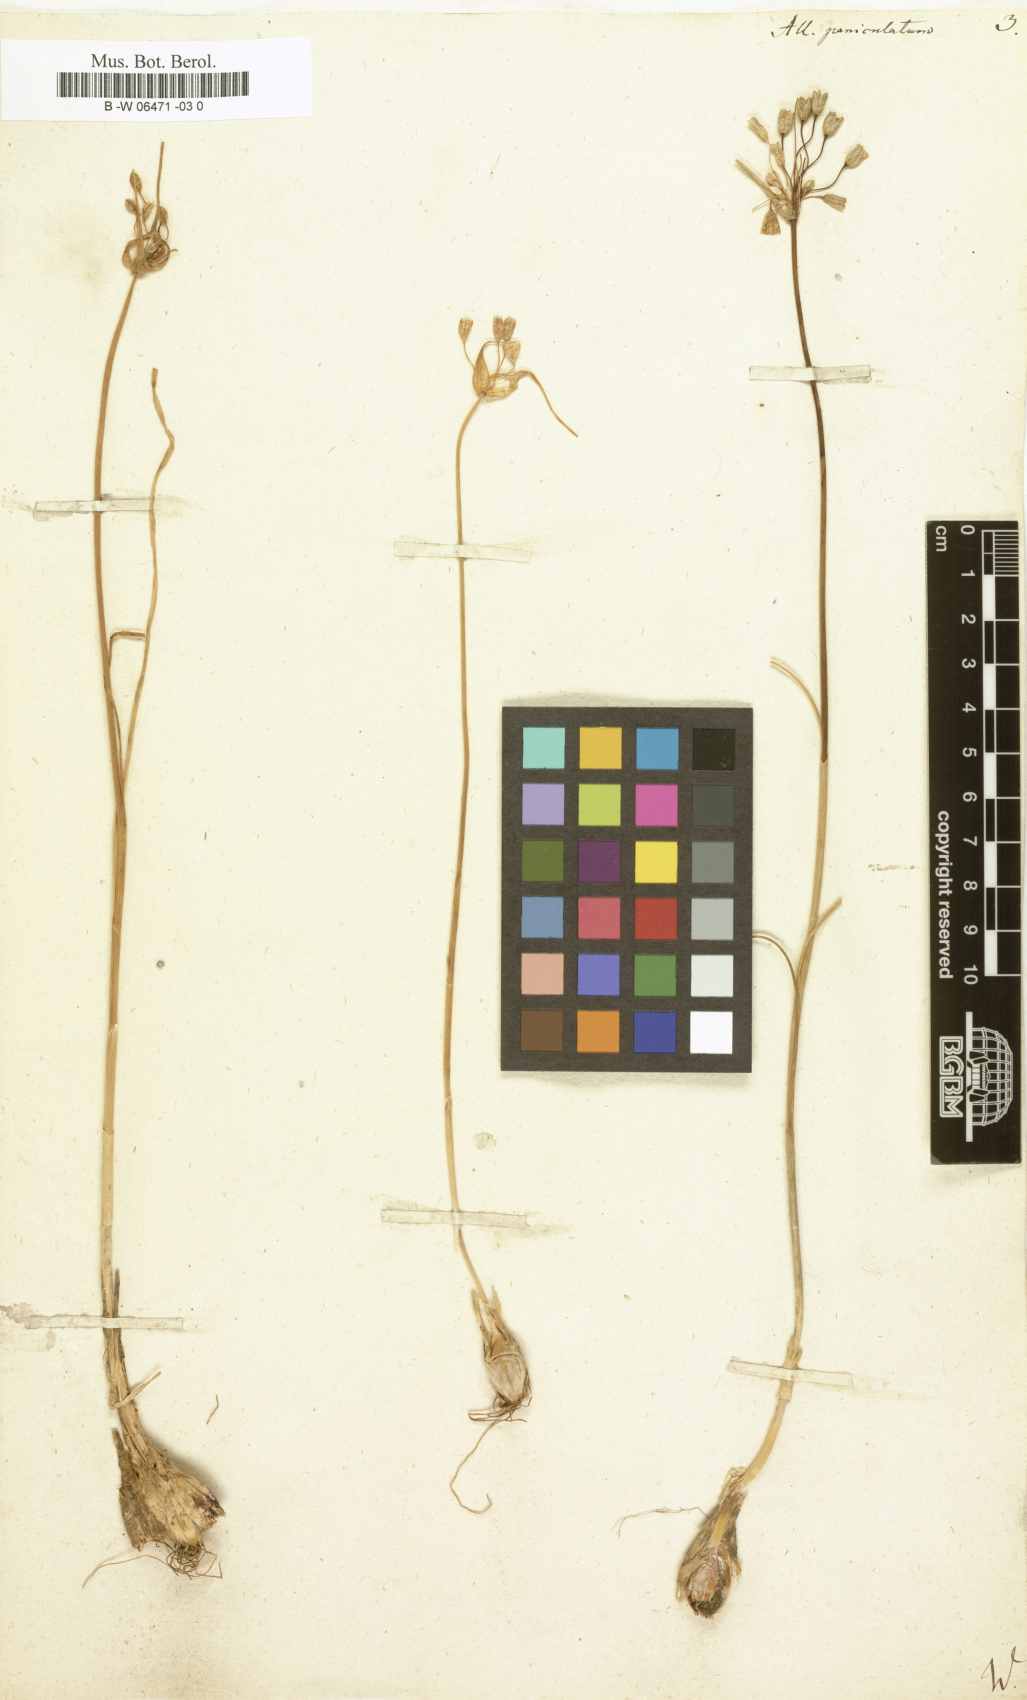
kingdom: Plantae
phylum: Tracheophyta
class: Liliopsida
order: Asparagales
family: Amaryllidaceae
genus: Allium
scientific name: Allium paniculatum
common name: Pale garlic
